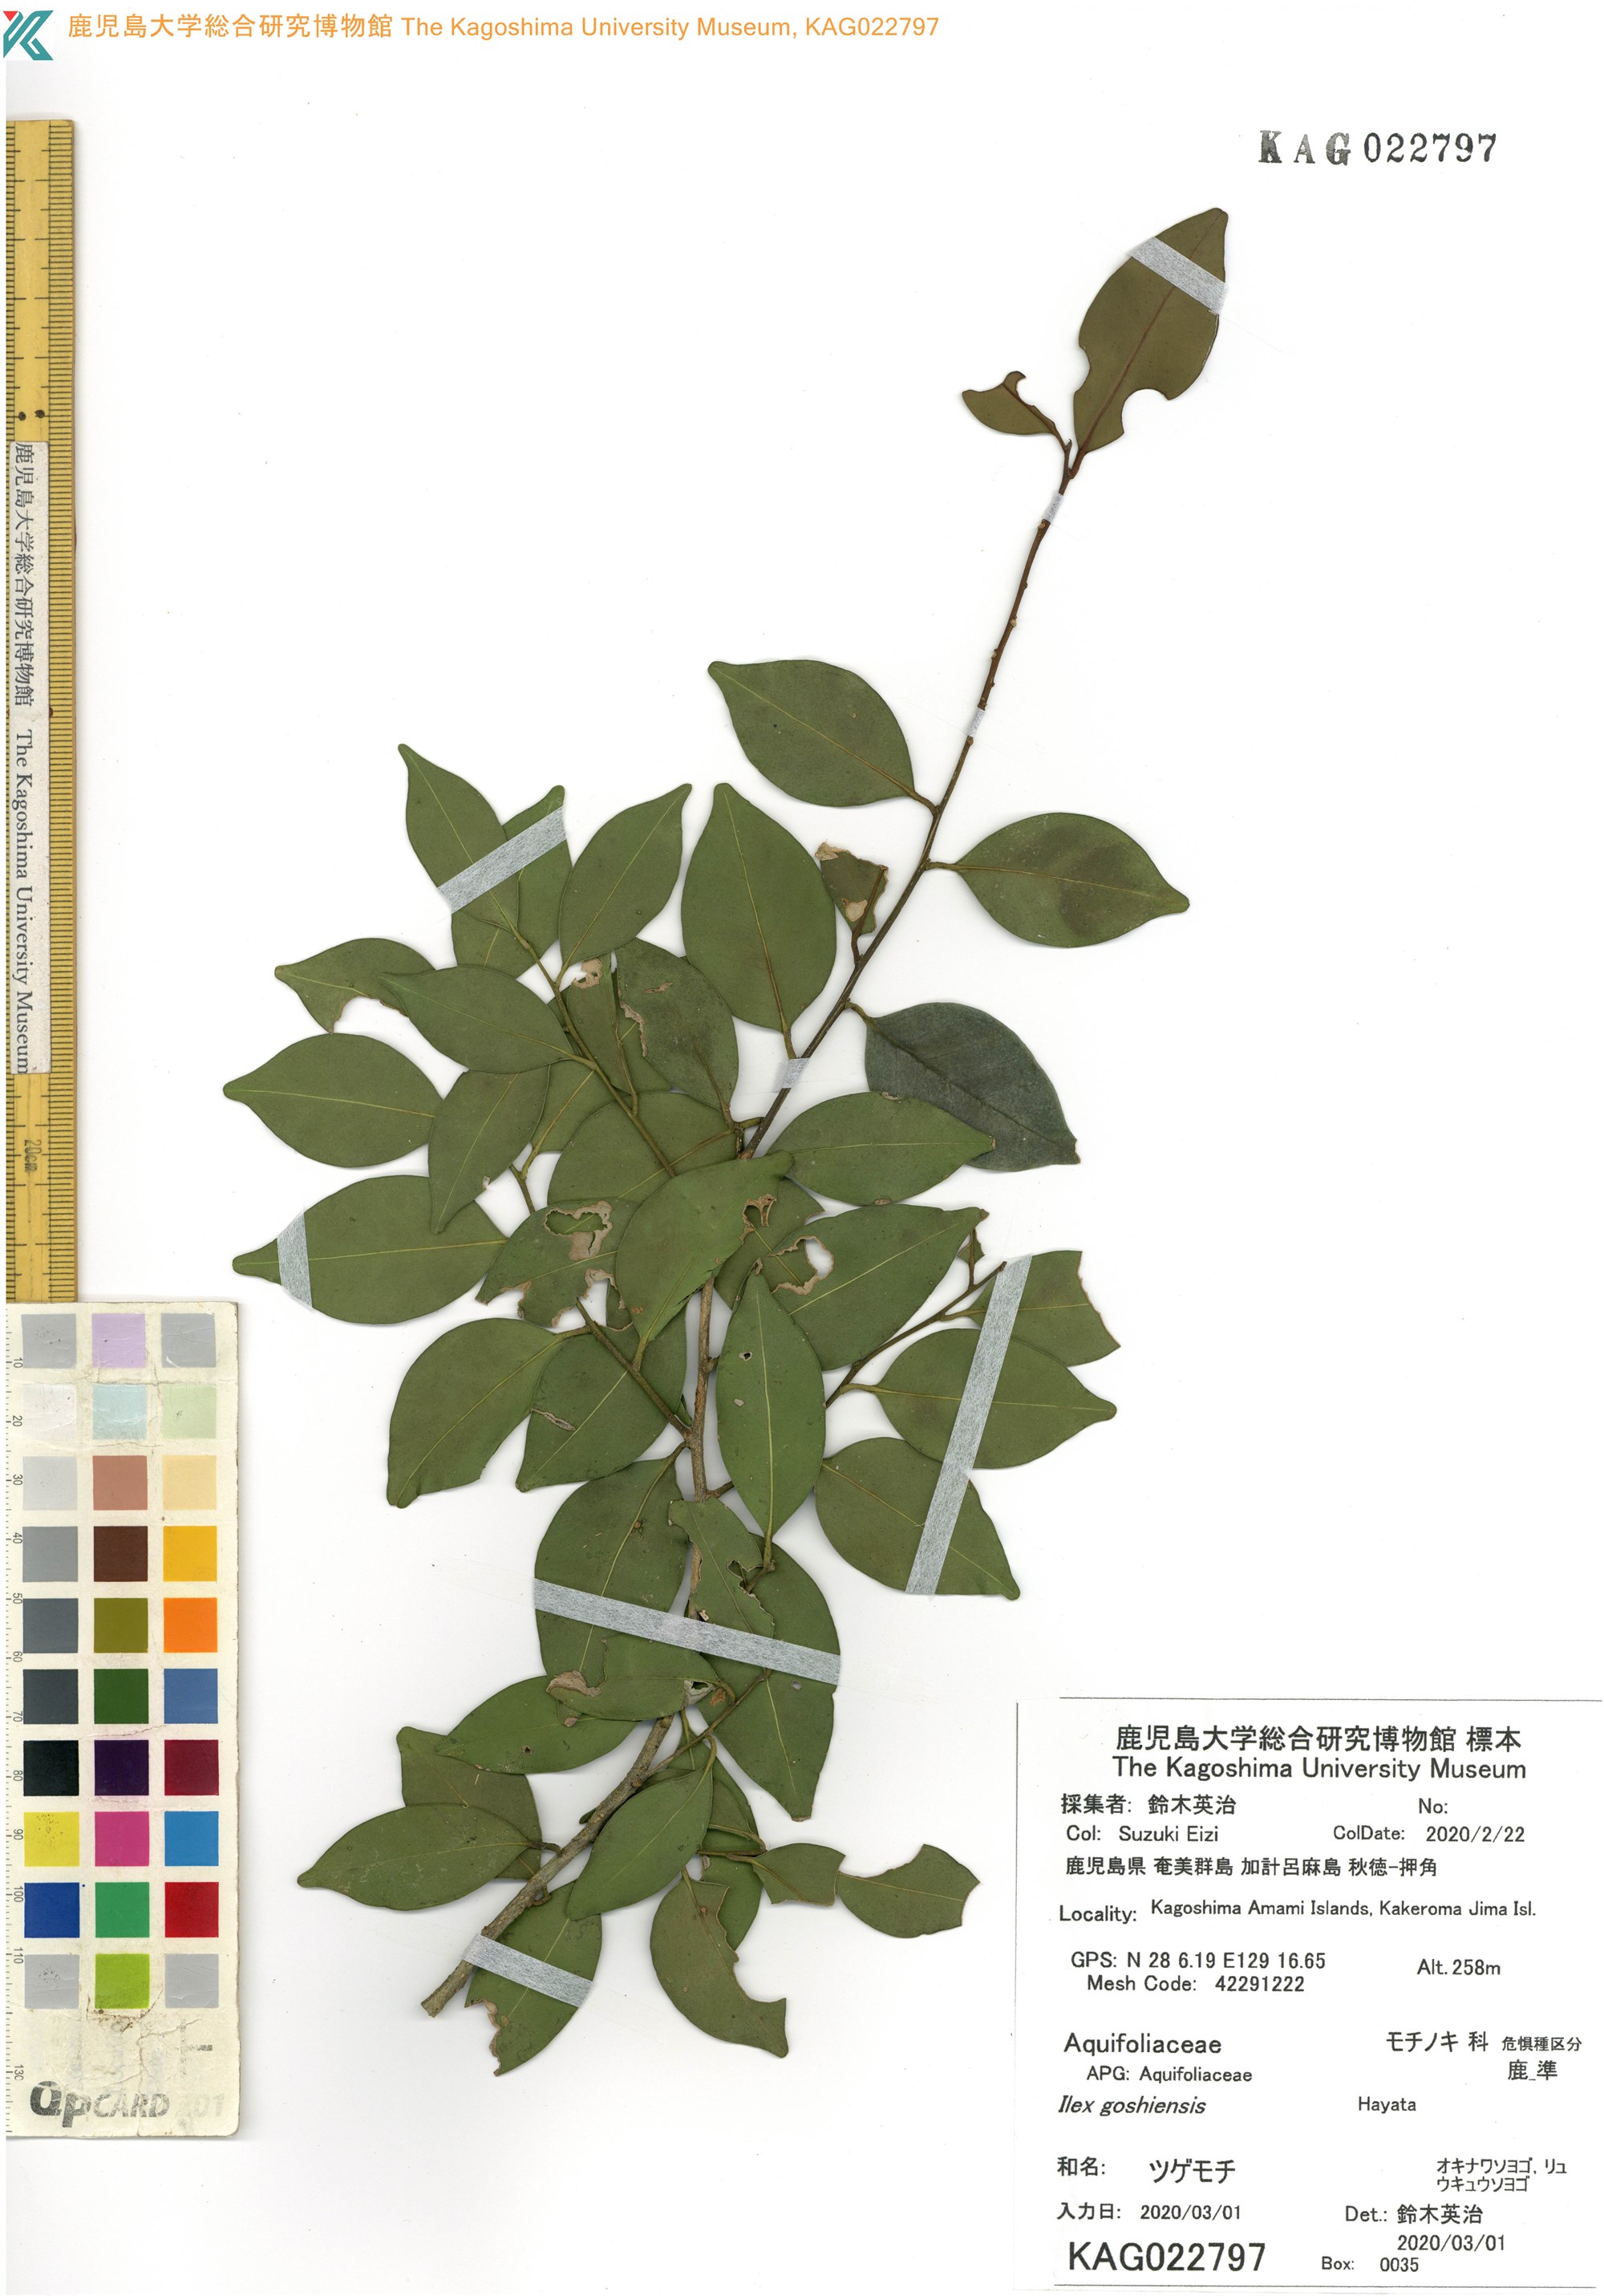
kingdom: Plantae
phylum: Tracheophyta
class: Magnoliopsida
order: Aquifoliales
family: Aquifoliaceae
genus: Ilex
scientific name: Ilex goshiensis
